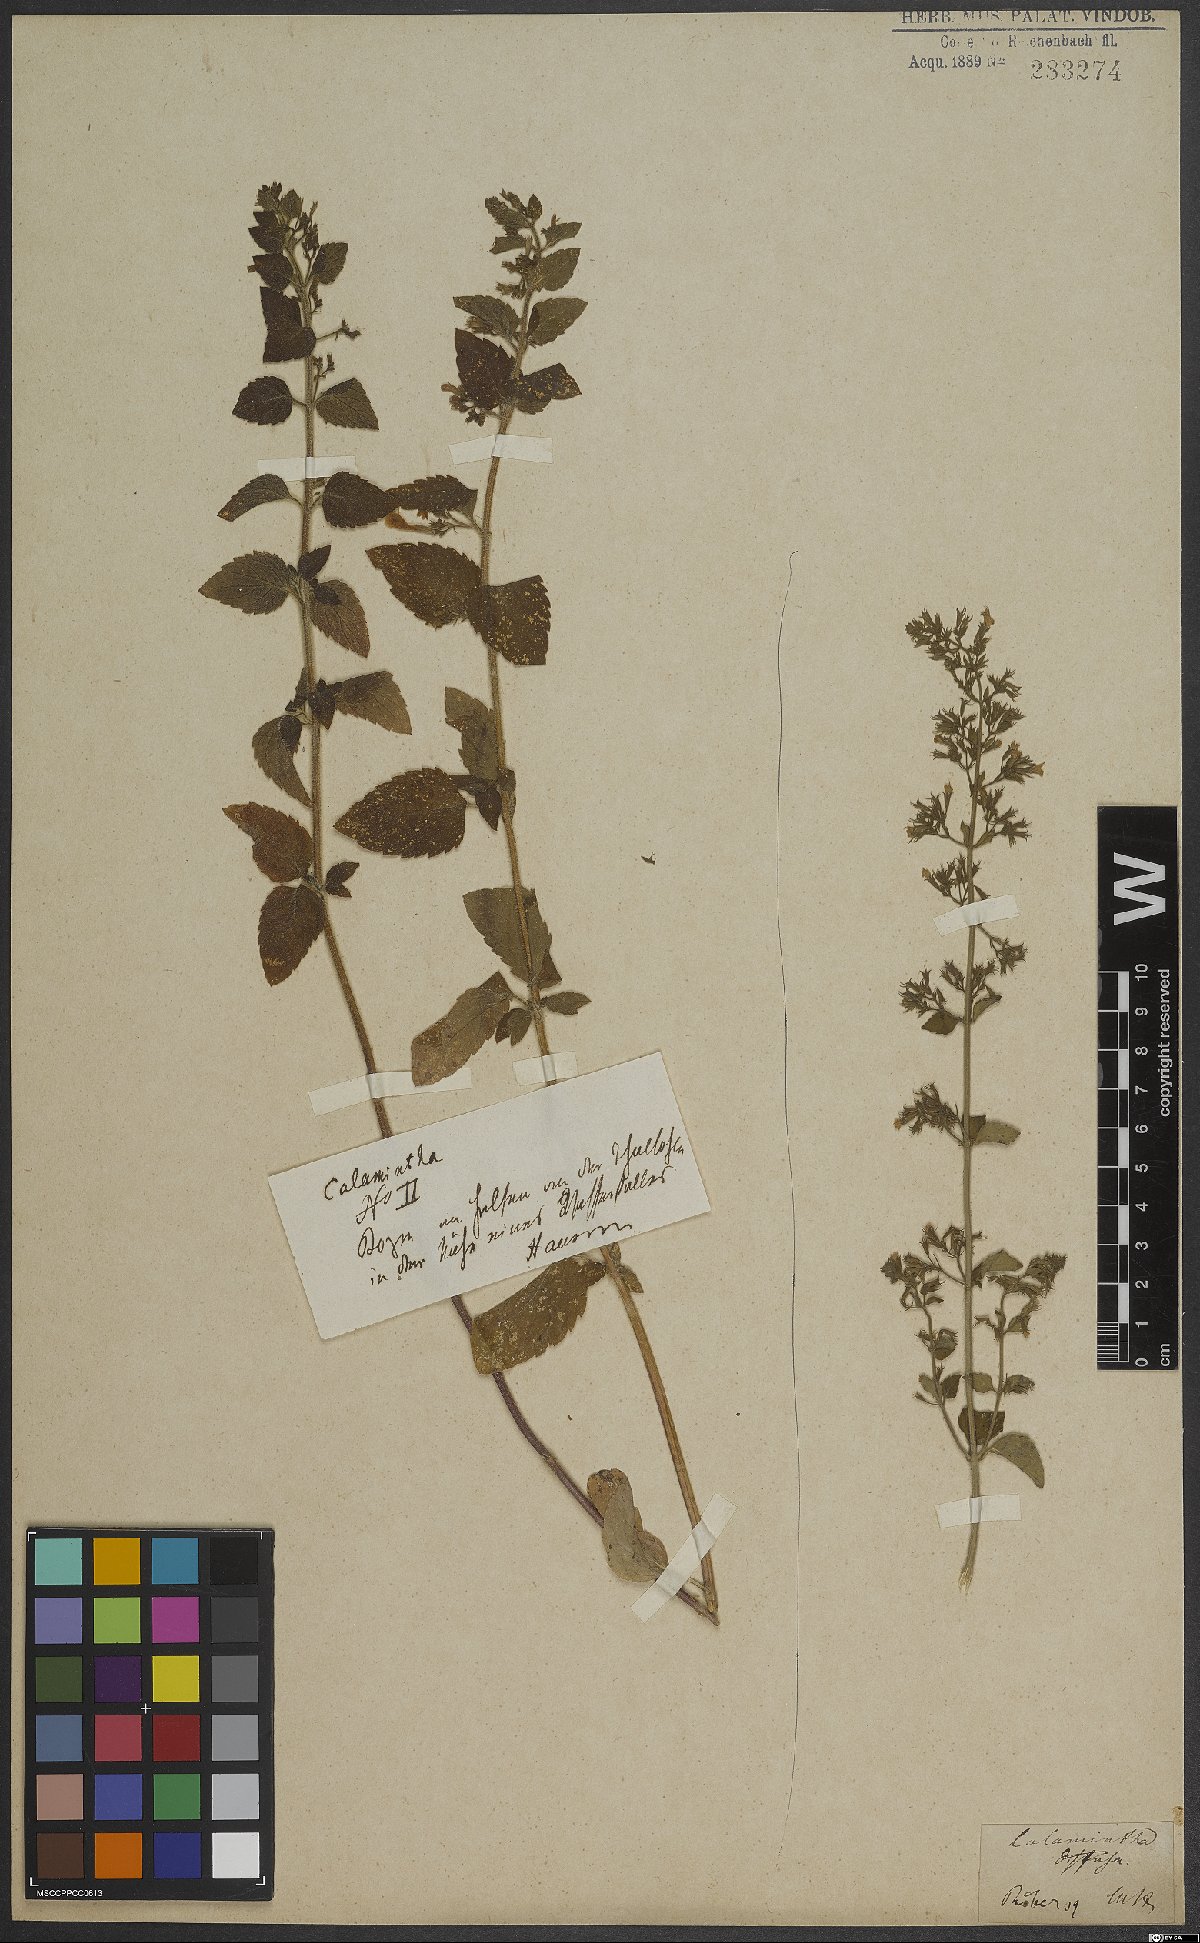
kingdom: Plantae
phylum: Tracheophyta
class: Magnoliopsida
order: Lamiales
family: Lamiaceae
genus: Calamintha
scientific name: Calamintha
